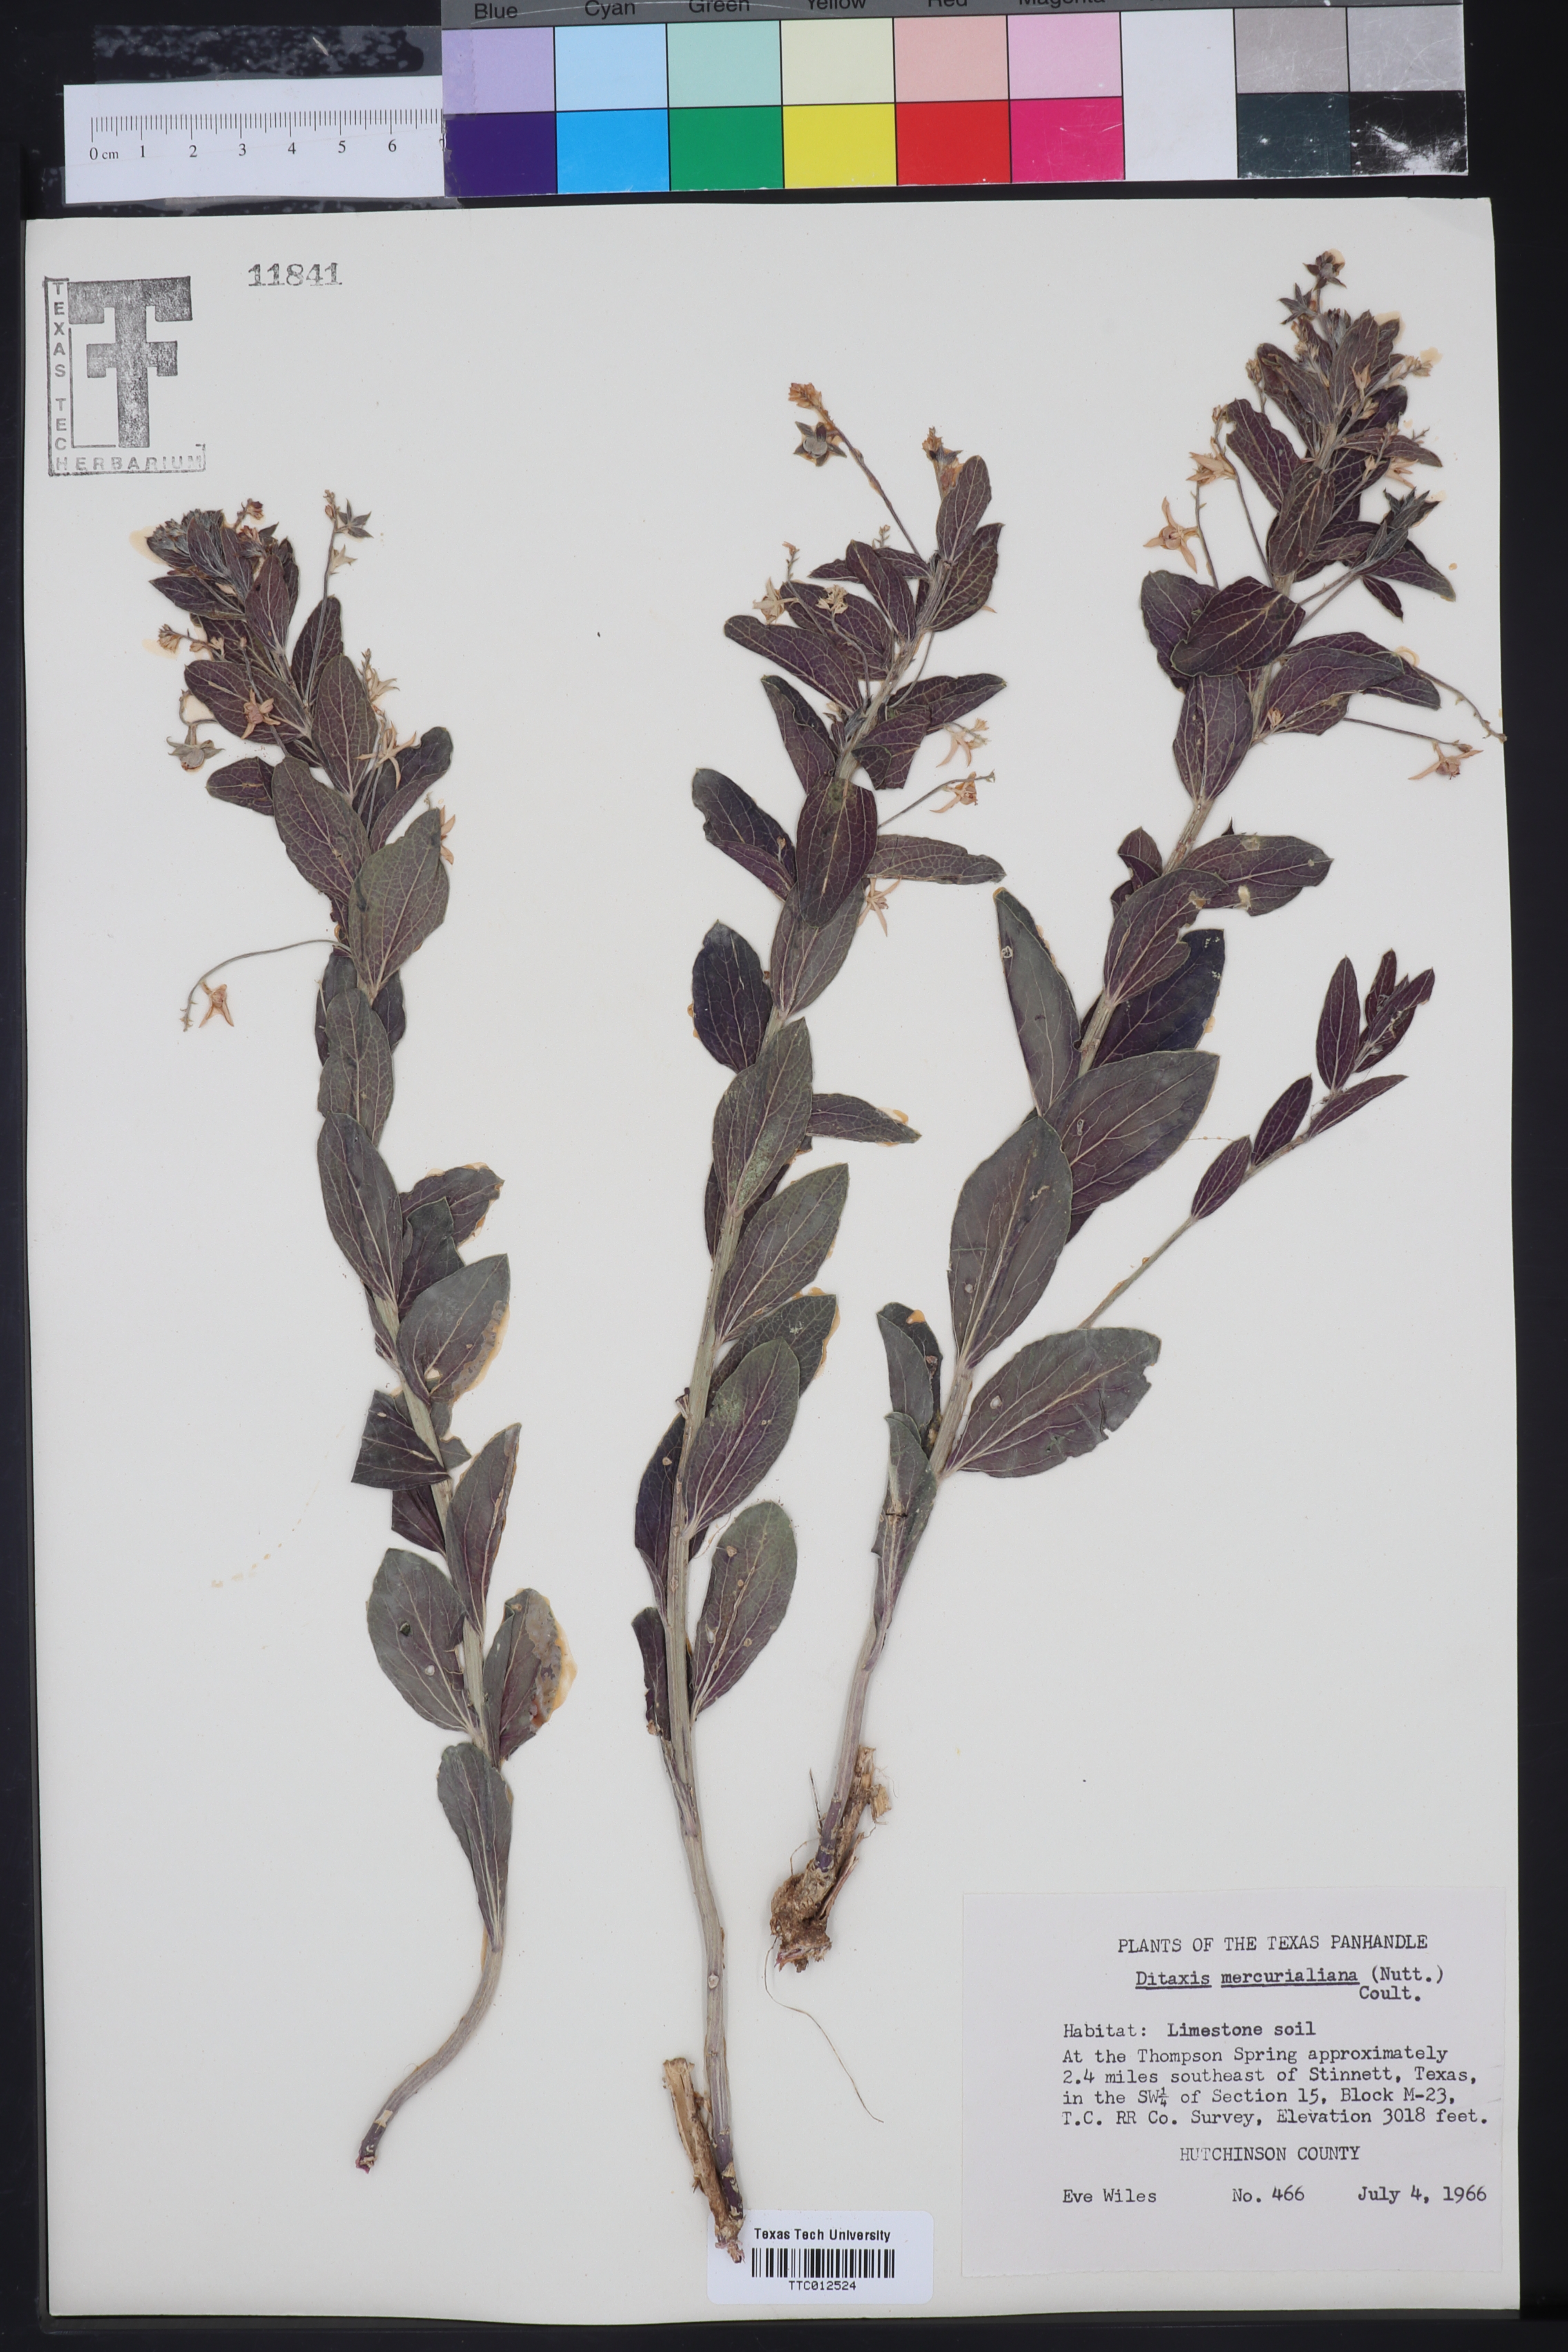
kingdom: Plantae
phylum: Tracheophyta
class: Magnoliopsida
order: Malpighiales
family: Euphorbiaceae
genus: Ditaxis
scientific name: Ditaxis mercurialina
